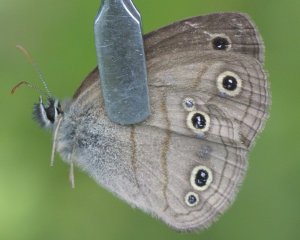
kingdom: Animalia
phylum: Arthropoda
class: Insecta
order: Lepidoptera
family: Nymphalidae
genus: Euptychia
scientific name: Euptychia cymela
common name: Little Wood Satyr
